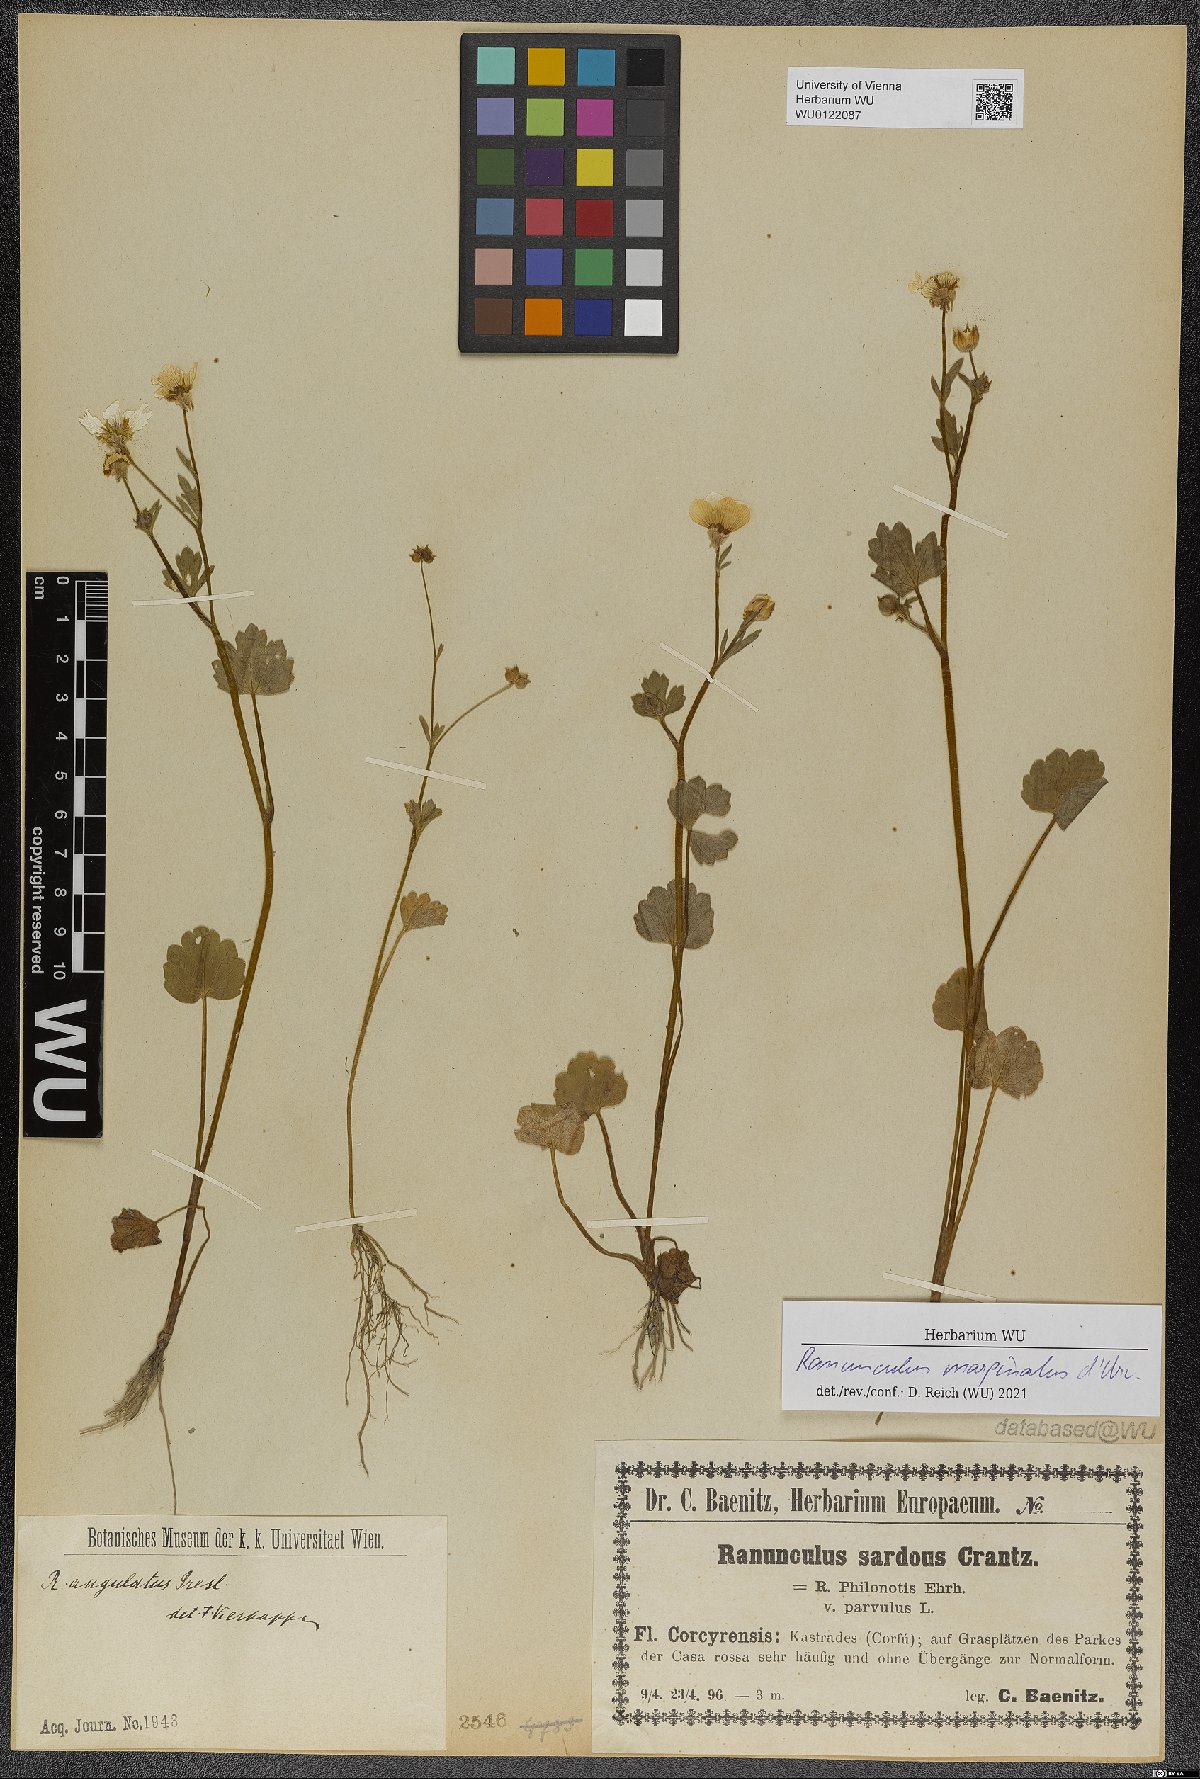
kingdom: Plantae
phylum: Tracheophyta
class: Magnoliopsida
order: Ranunculales
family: Ranunculaceae
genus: Ranunculus
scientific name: Ranunculus marginatus
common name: St. martin's buttercup
